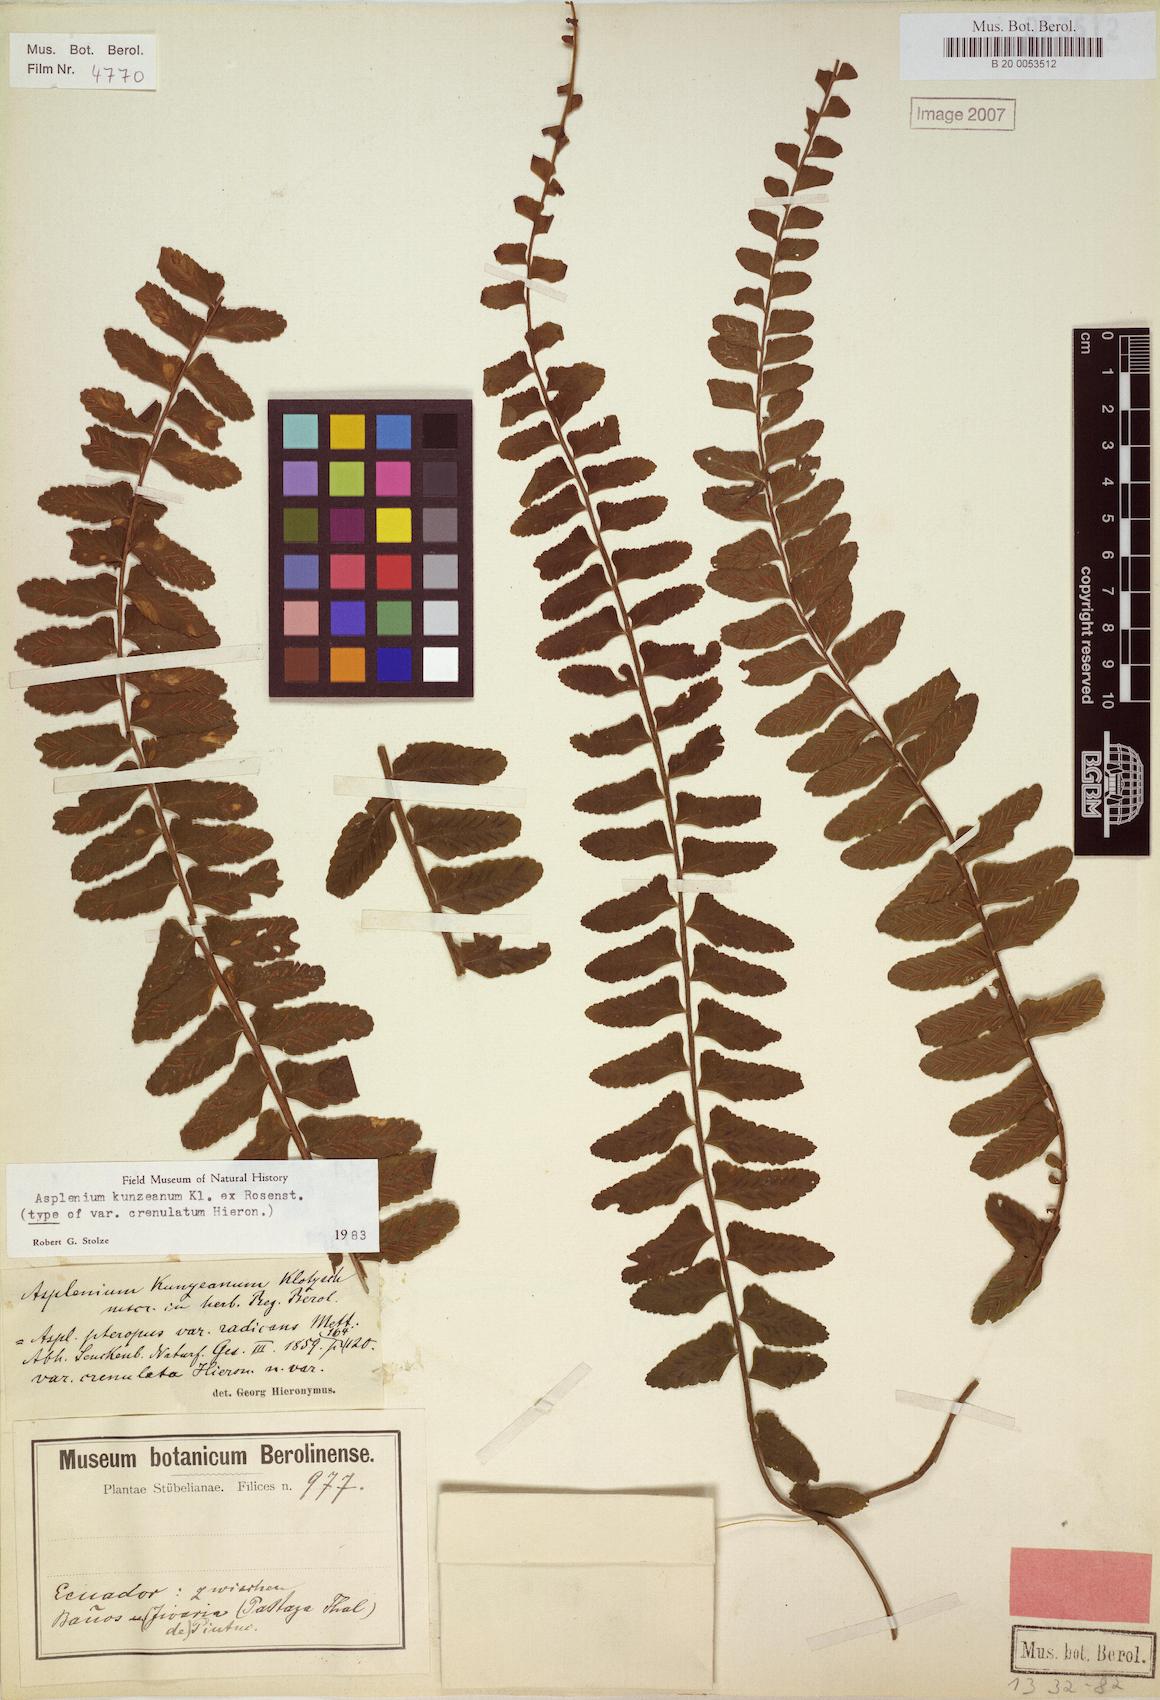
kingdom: Plantae
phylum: Tracheophyta
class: Polypodiopsida
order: Polypodiales
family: Aspleniaceae
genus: Asplenium
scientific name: Asplenium kunzeanum
